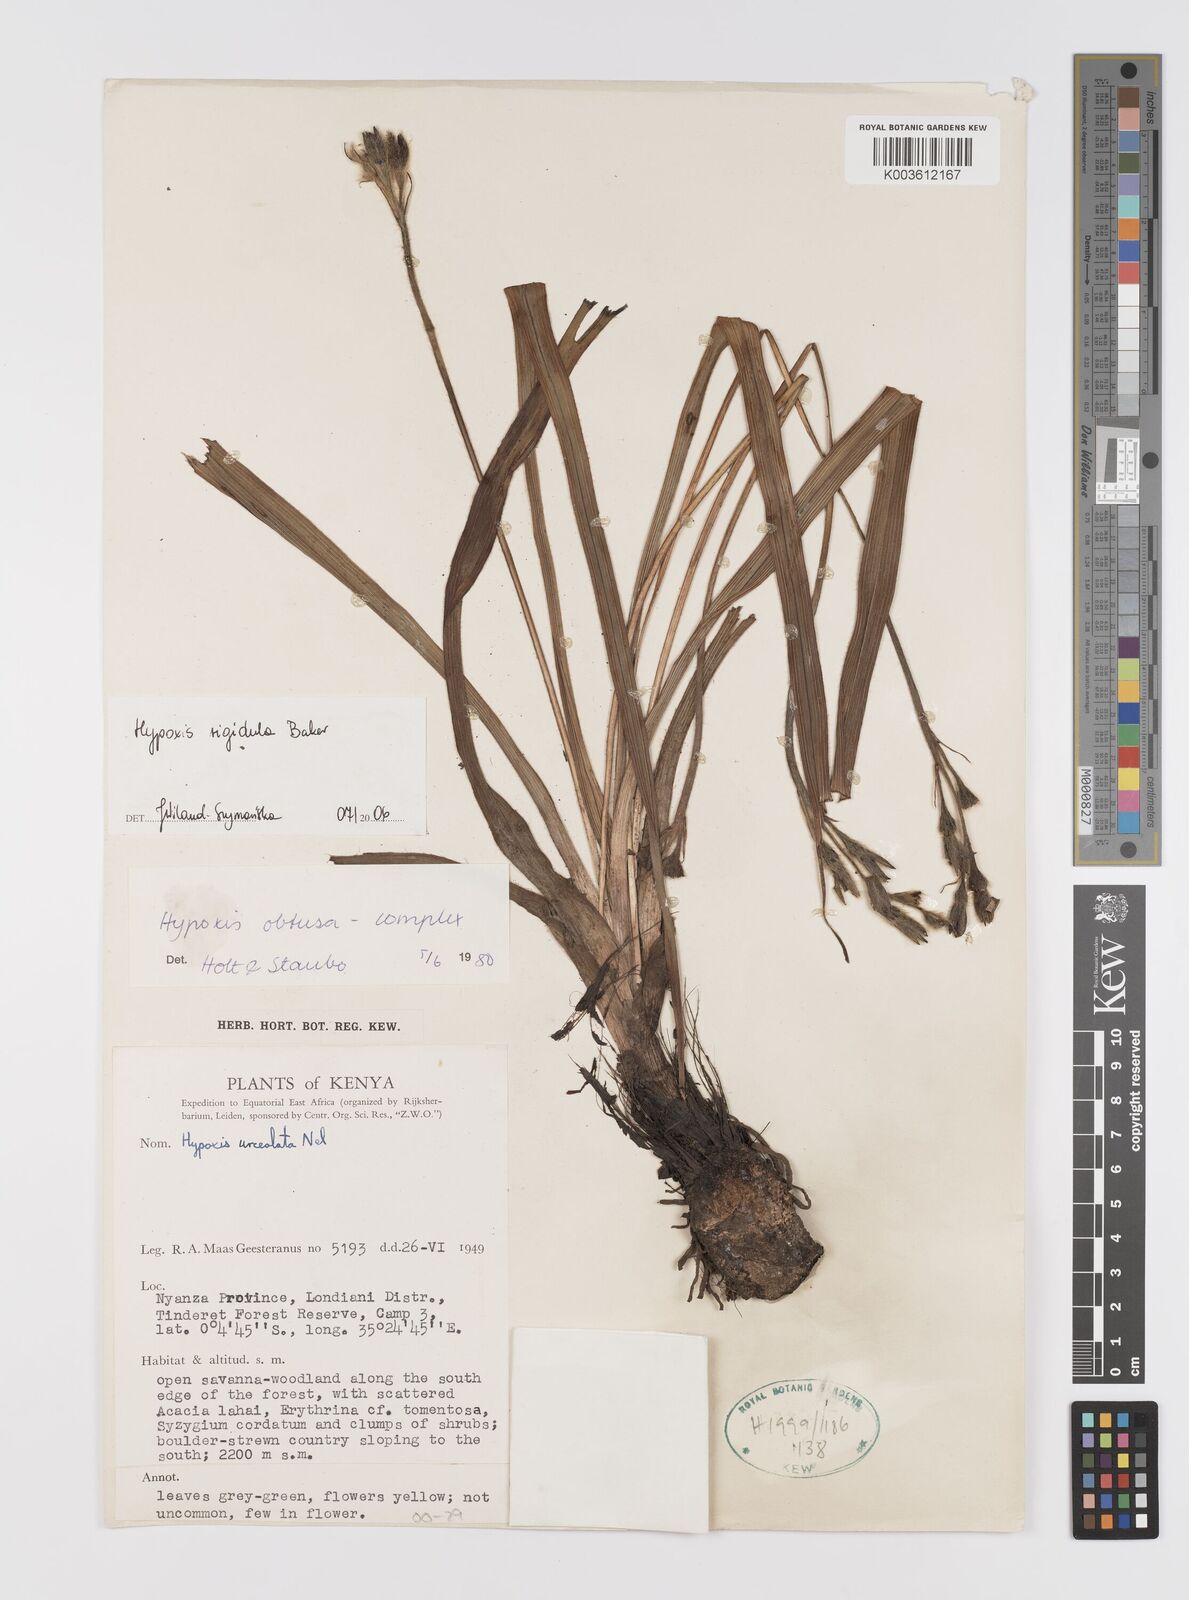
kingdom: Plantae
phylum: Tracheophyta
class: Liliopsida
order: Asparagales
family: Hypoxidaceae
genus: Hypoxis
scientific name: Hypoxis rigidula
